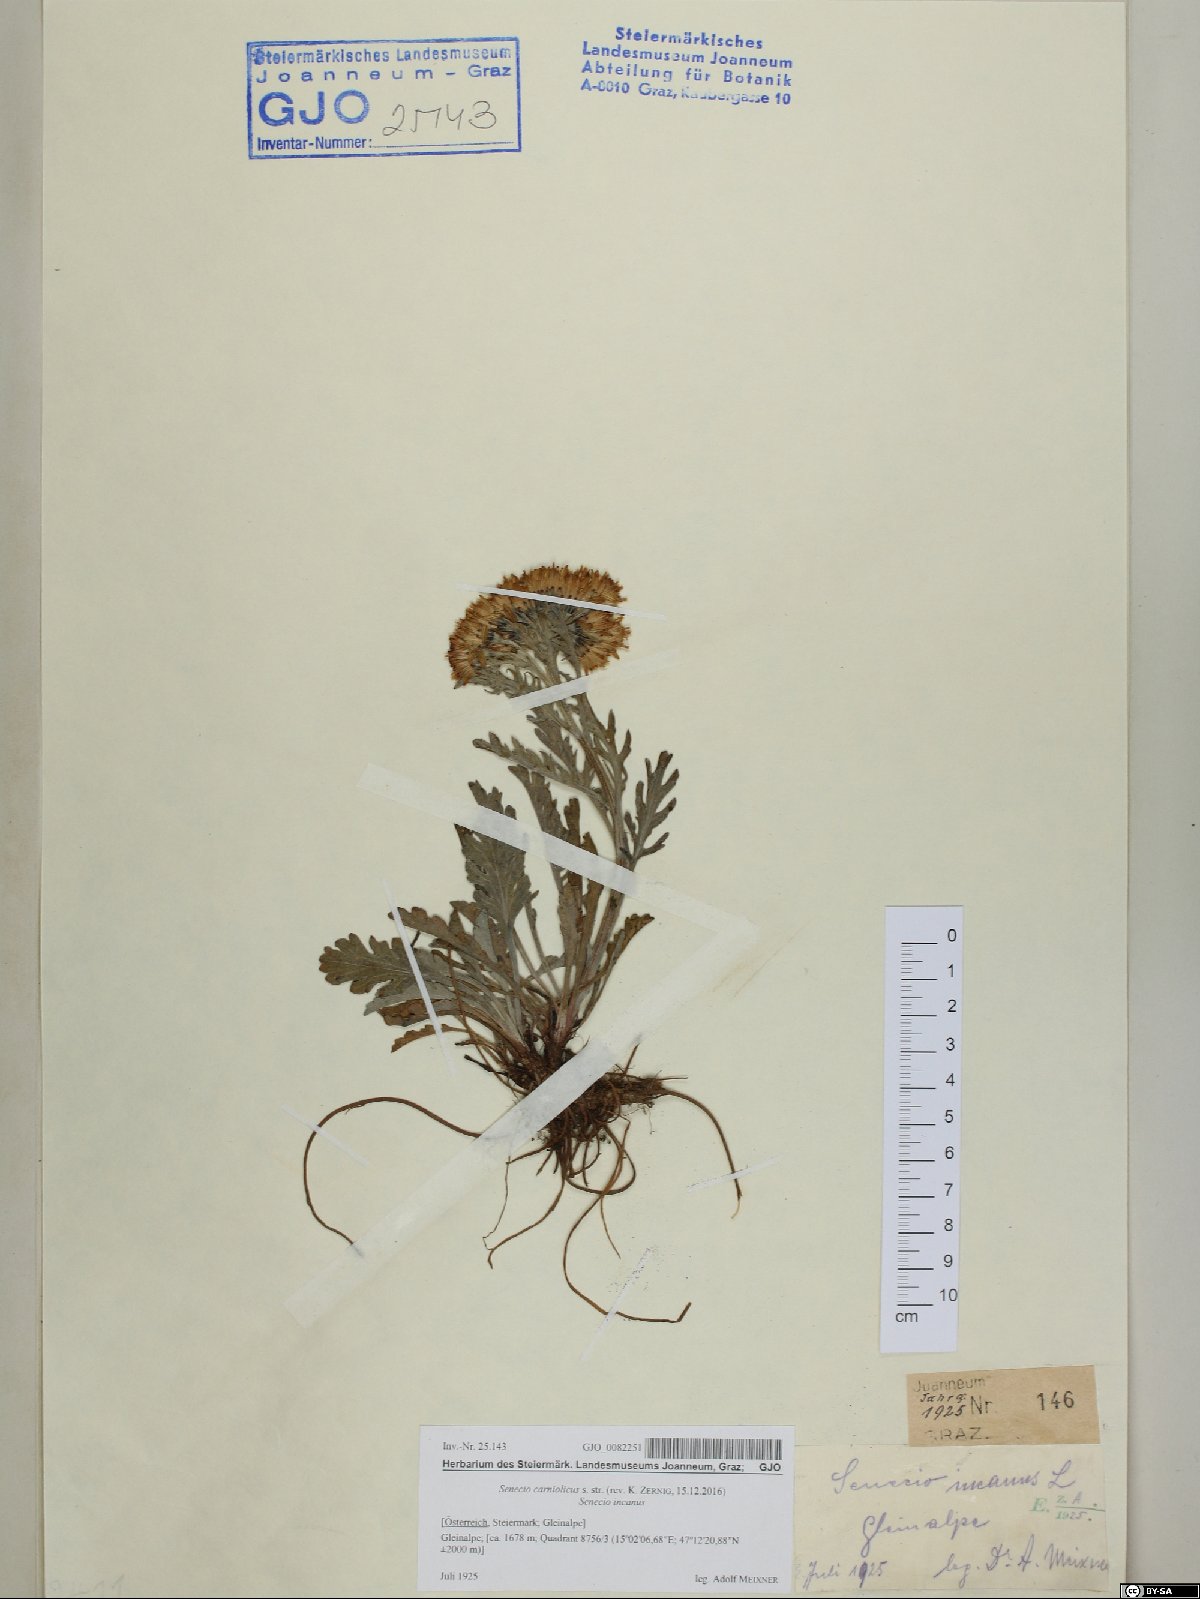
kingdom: Plantae
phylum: Tracheophyta
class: Magnoliopsida
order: Asterales
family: Asteraceae
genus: Jacobaea
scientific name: Jacobaea carniolica
